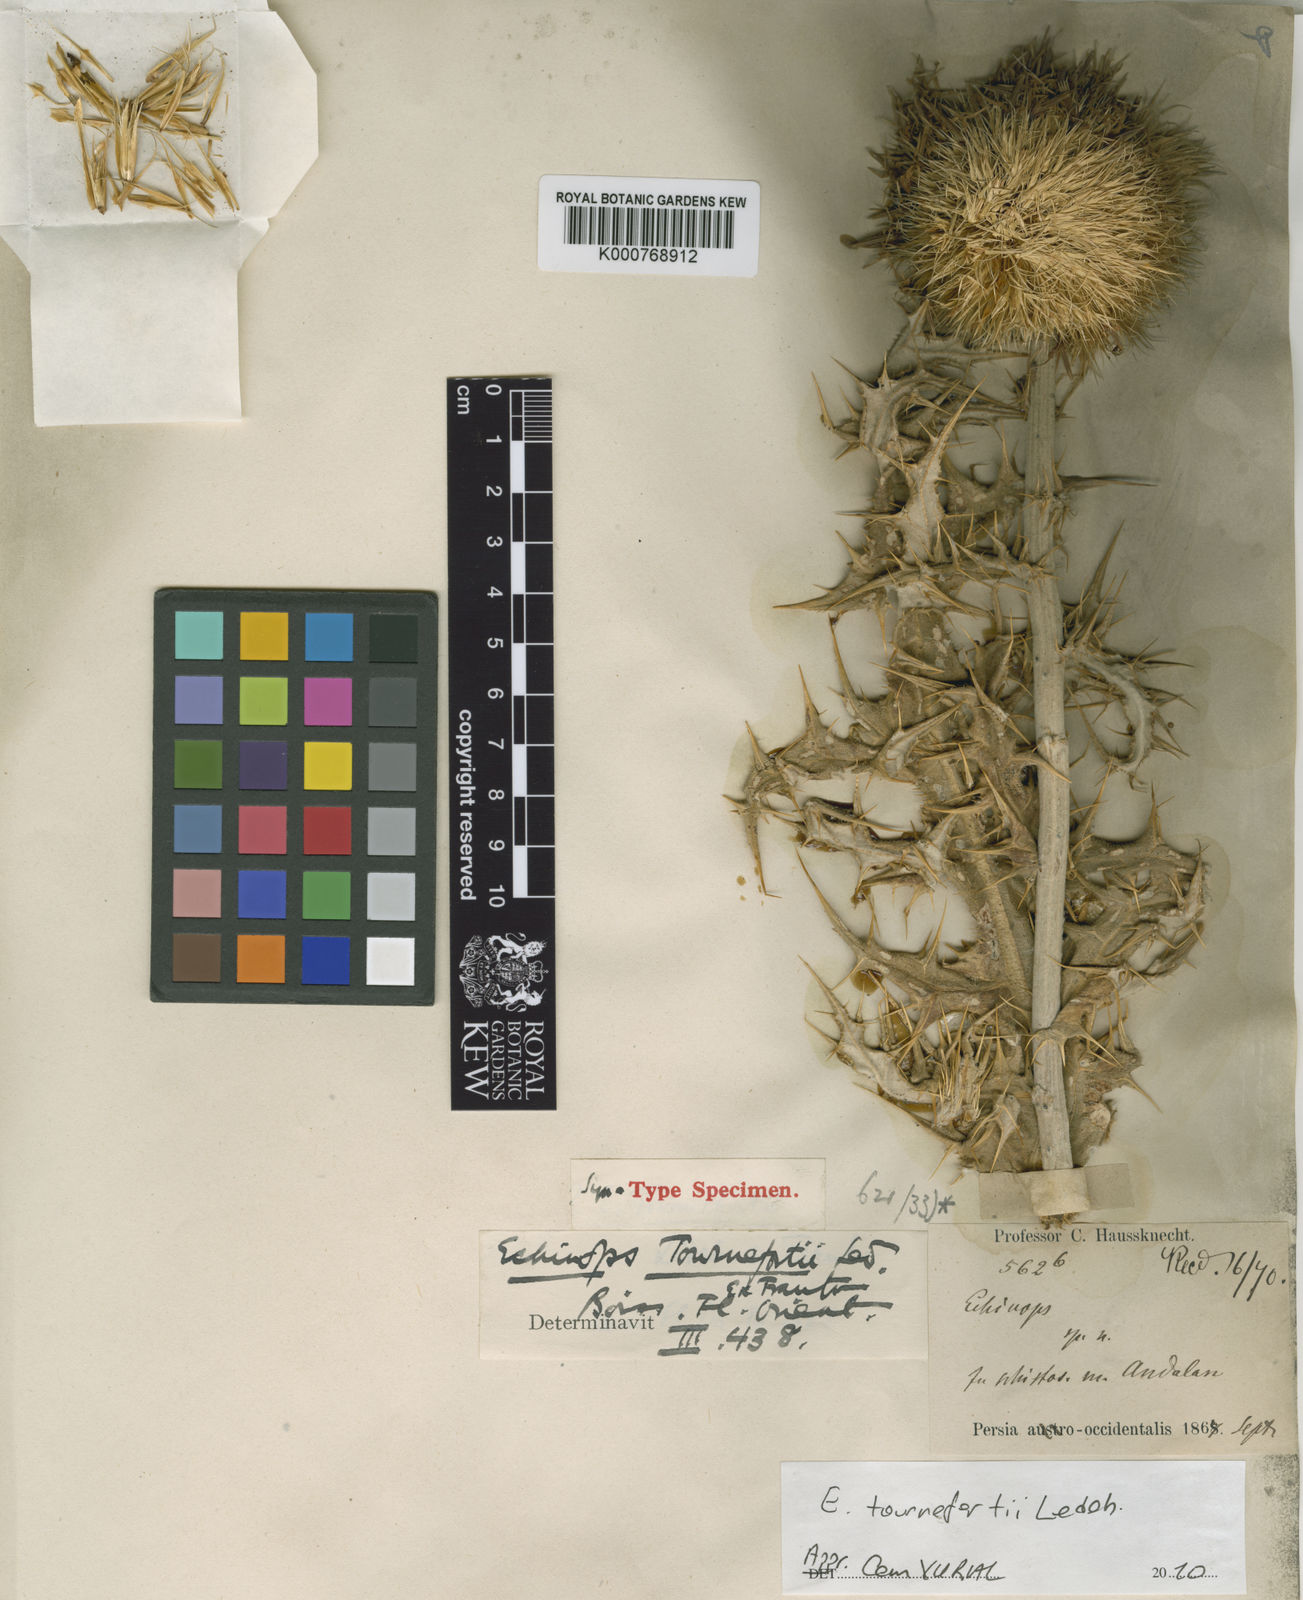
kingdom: Plantae
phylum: Tracheophyta
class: Magnoliopsida
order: Asterales
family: Asteraceae
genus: Echinops
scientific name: Echinops tournefortii
